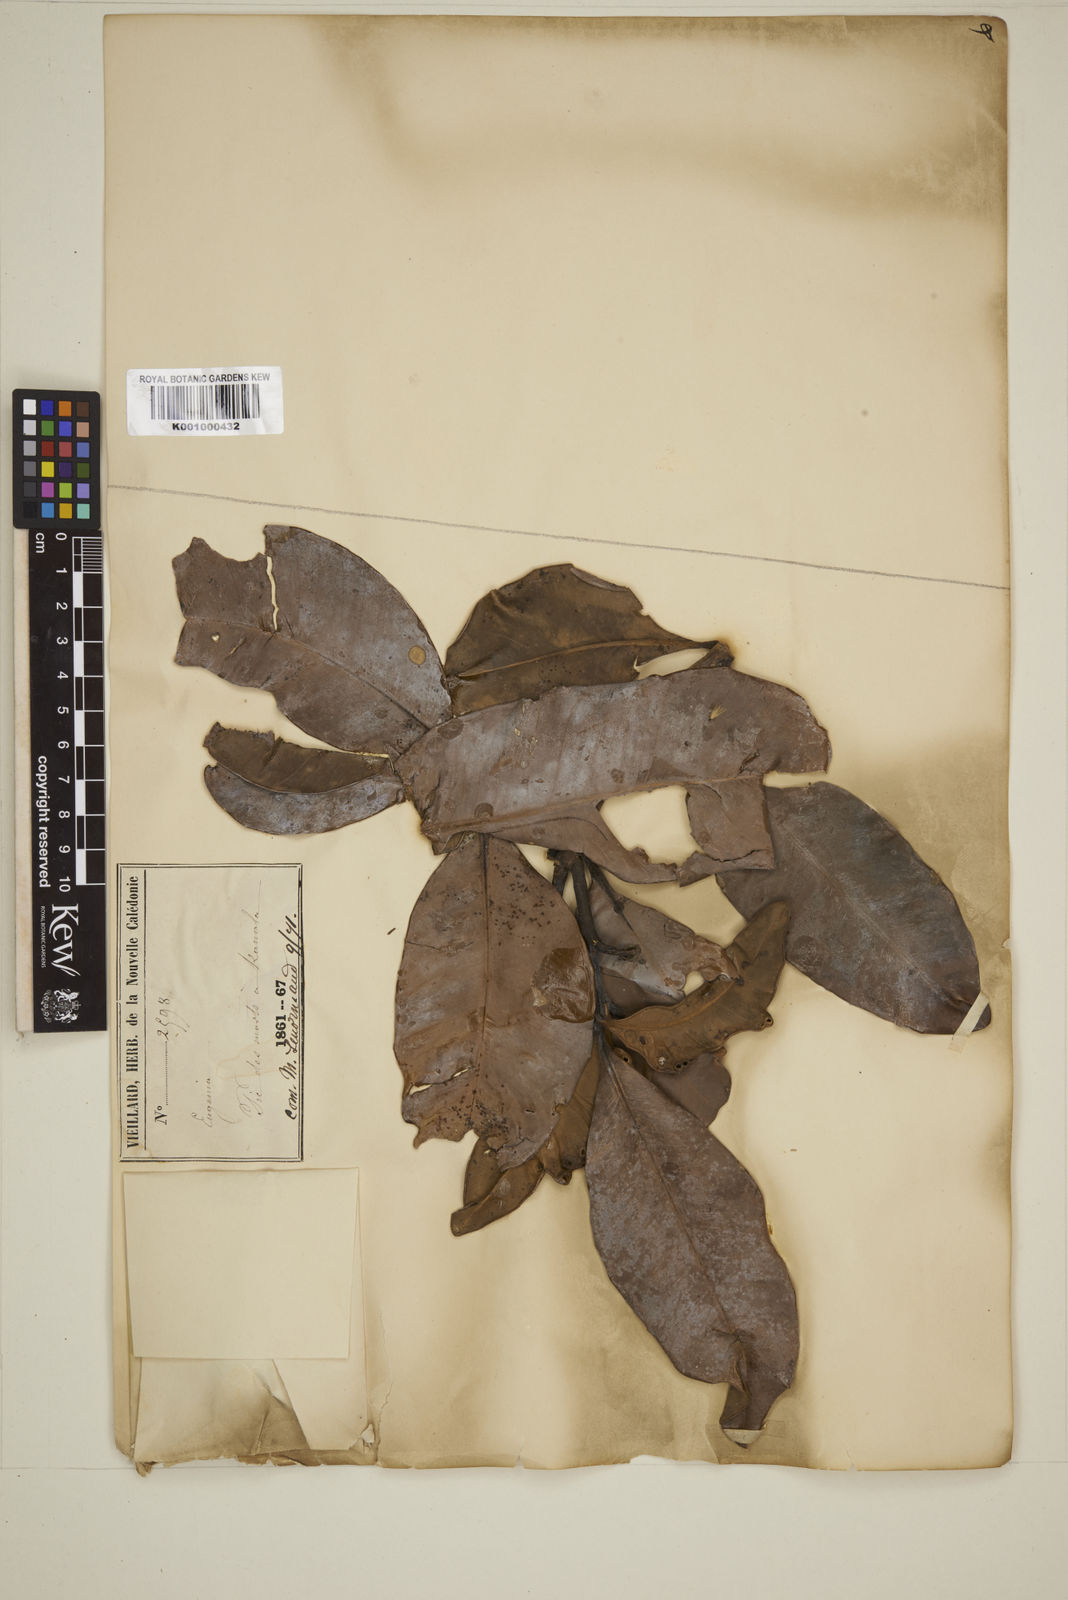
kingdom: Plantae
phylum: Tracheophyta
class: Magnoliopsida
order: Myrtales
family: Myrtaceae
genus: Eugenia
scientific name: Eugenia
